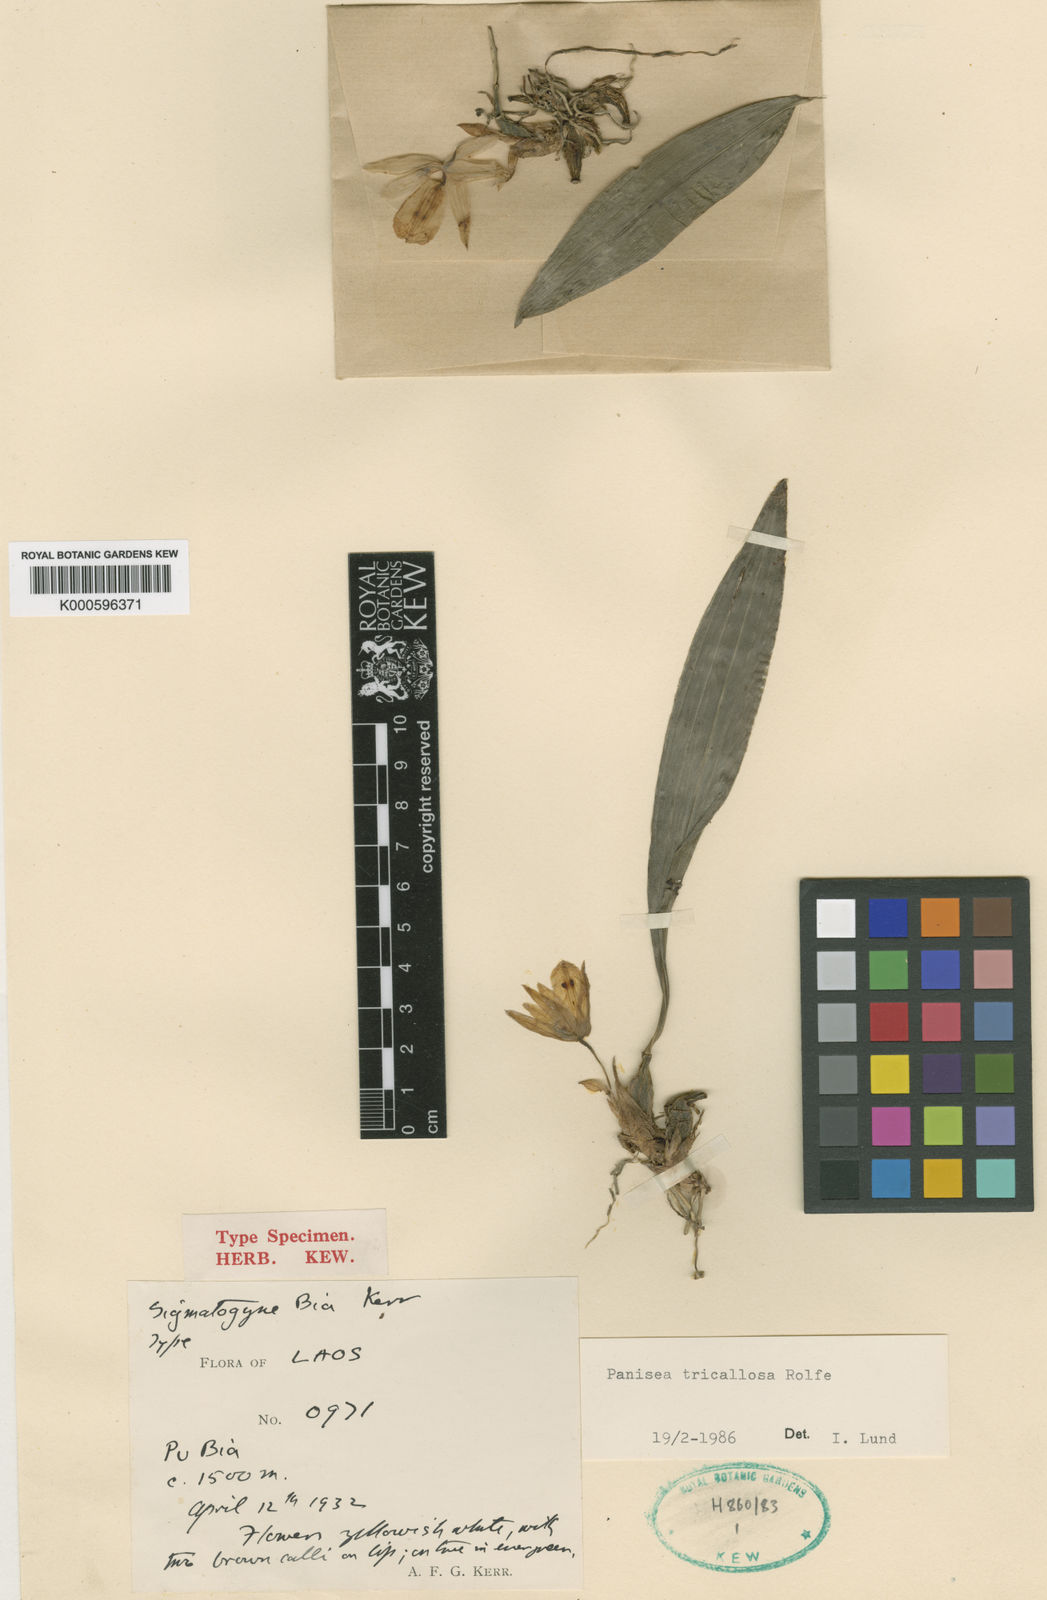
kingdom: Plantae
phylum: Tracheophyta
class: Liliopsida
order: Asparagales
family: Orchidaceae
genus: Coelogyne
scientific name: Coelogyne tricallosa
